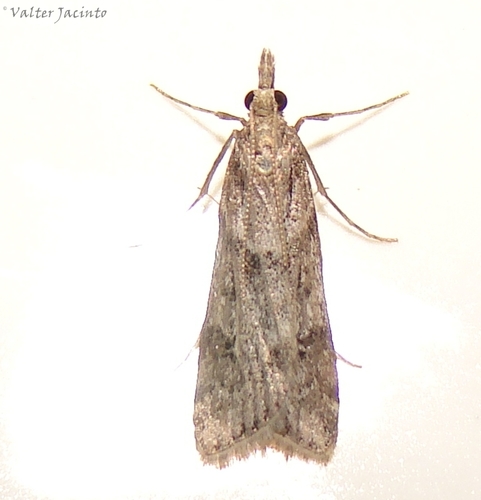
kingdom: Animalia
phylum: Arthropoda
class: Insecta
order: Lepidoptera
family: Crambidae
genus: Eudonia
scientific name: Eudonia angustea
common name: Narrow-winged grey
